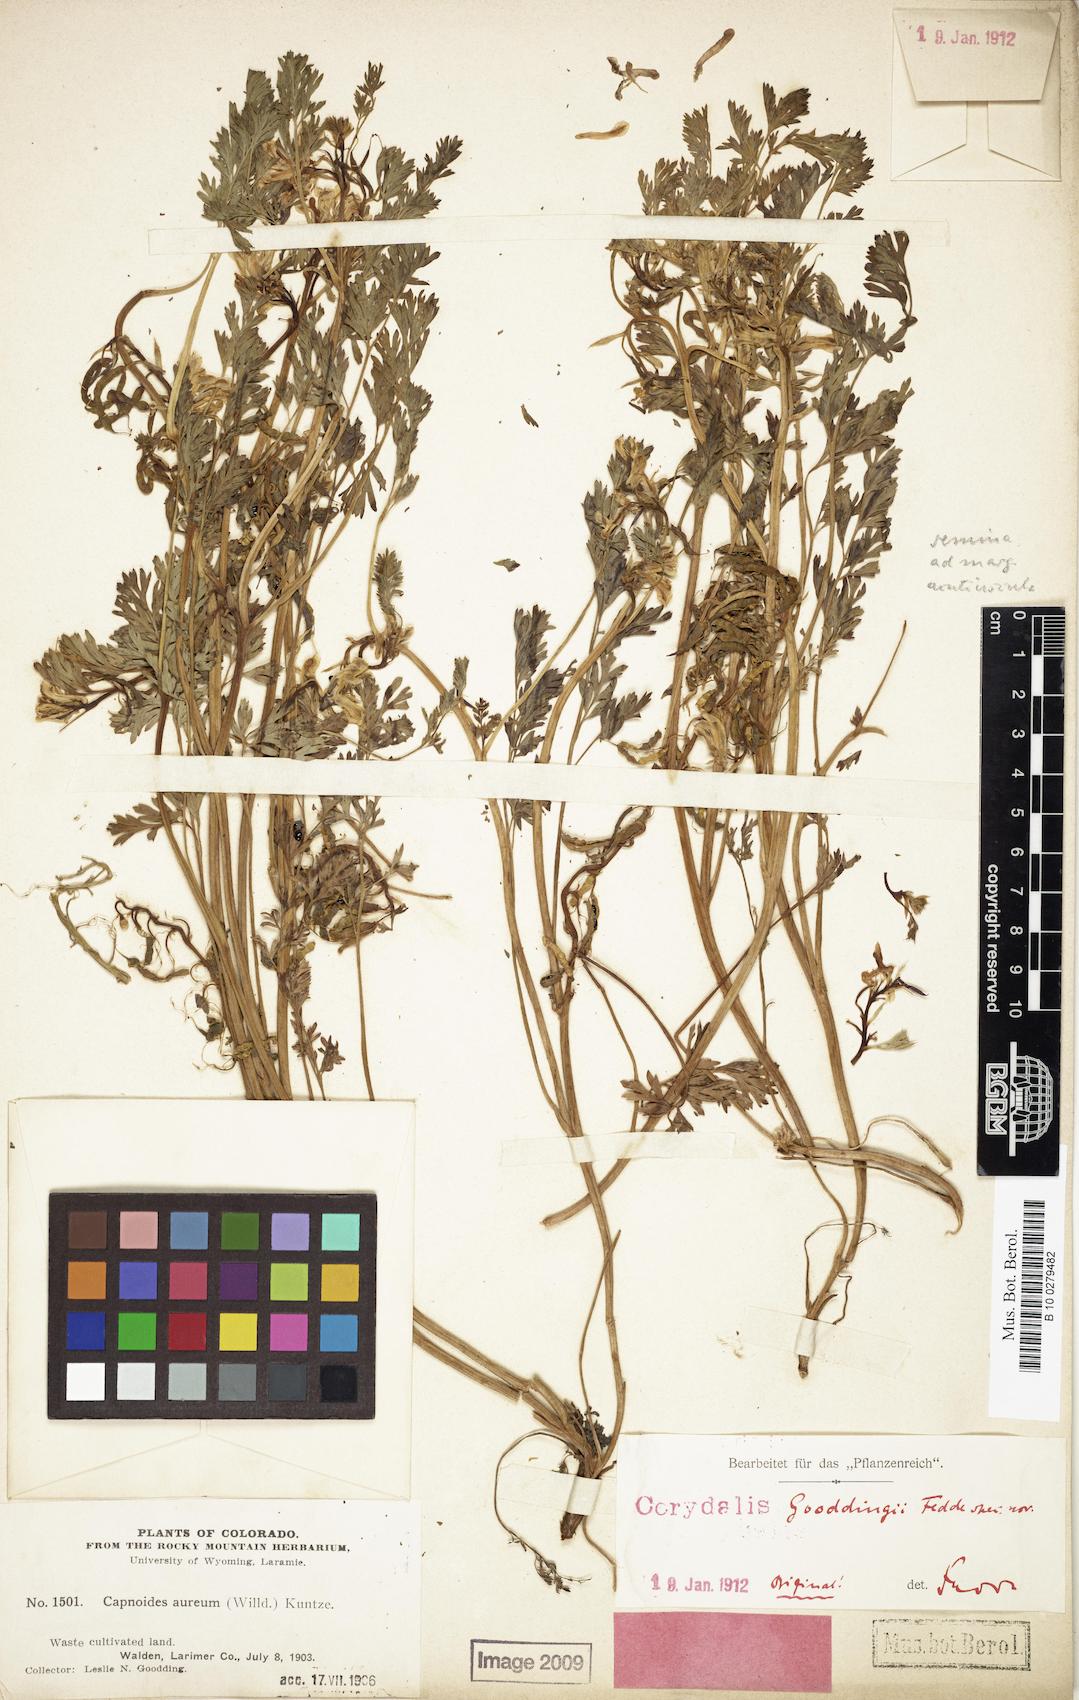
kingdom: Plantae
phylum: Tracheophyta
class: Magnoliopsida
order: Ranunculales
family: Papaveraceae
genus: Corydalis
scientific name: Corydalis aurea
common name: Golden corydalis
